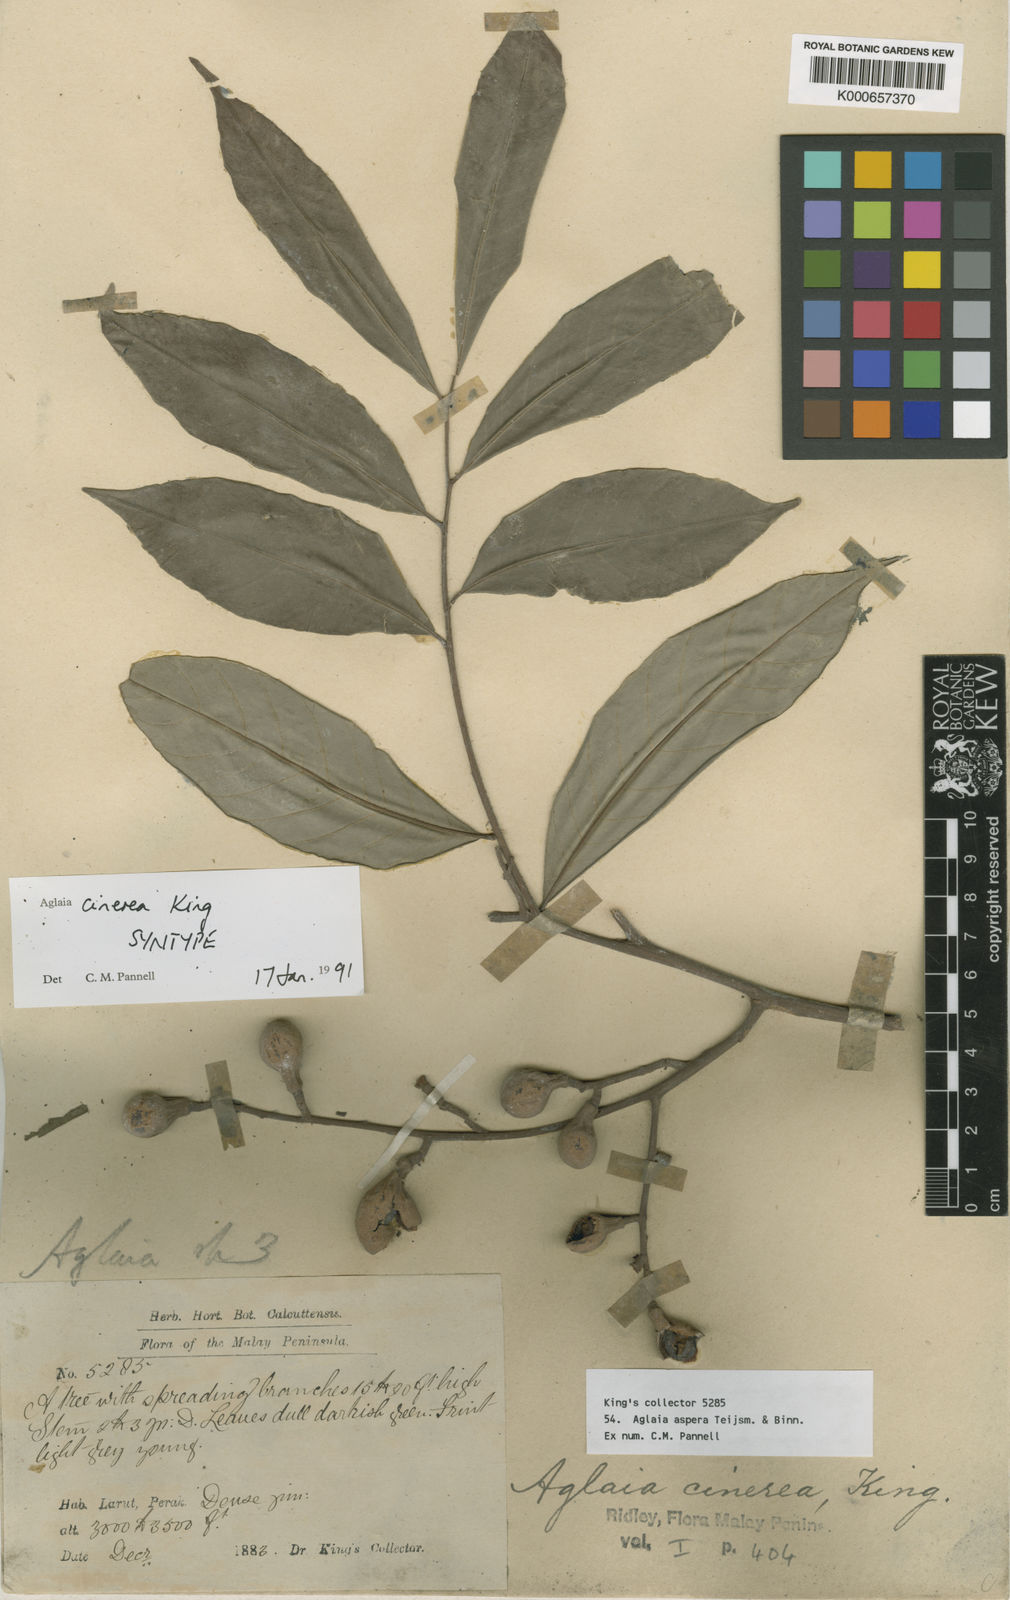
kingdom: Plantae
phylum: Tracheophyta
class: Magnoliopsida
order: Sapindales
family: Meliaceae
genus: Aglaia
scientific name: Aglaia sexipetala
